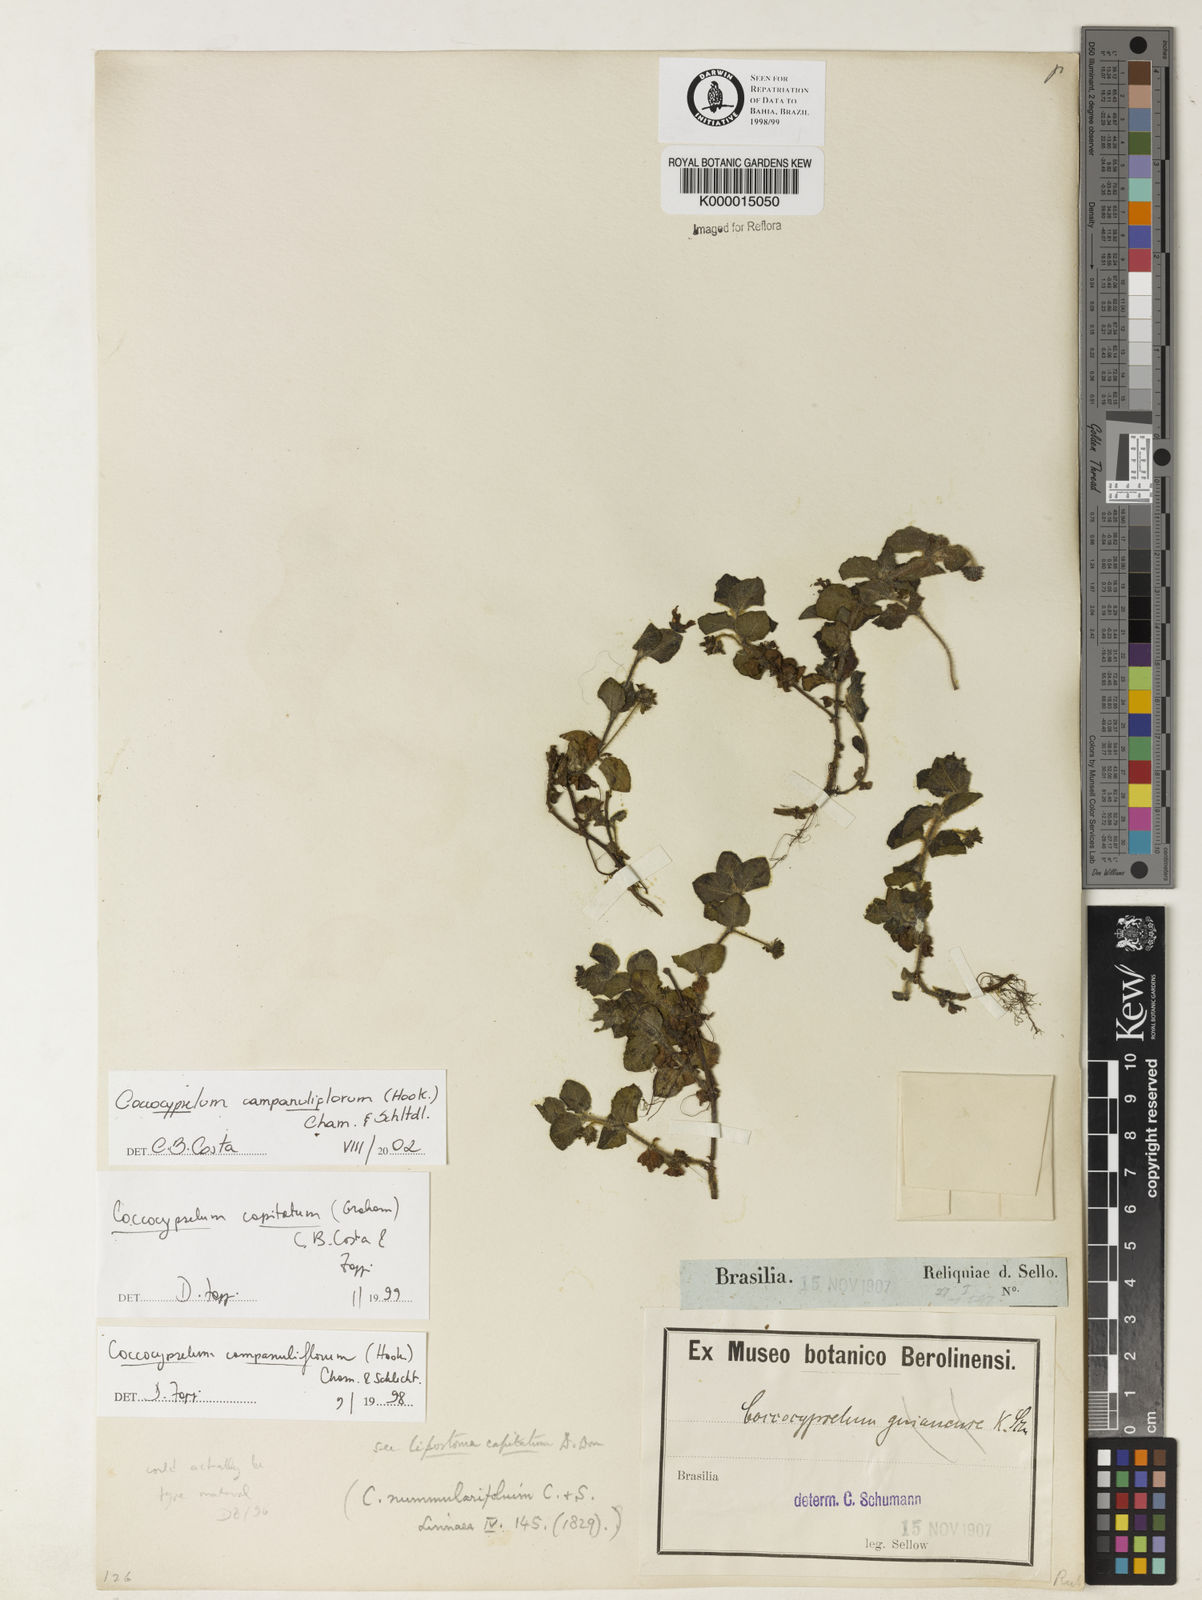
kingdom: Plantae
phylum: Tracheophyta
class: Magnoliopsida
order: Gentianales
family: Rubiaceae
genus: Coccocypselum
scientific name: Coccocypselum capitatum
